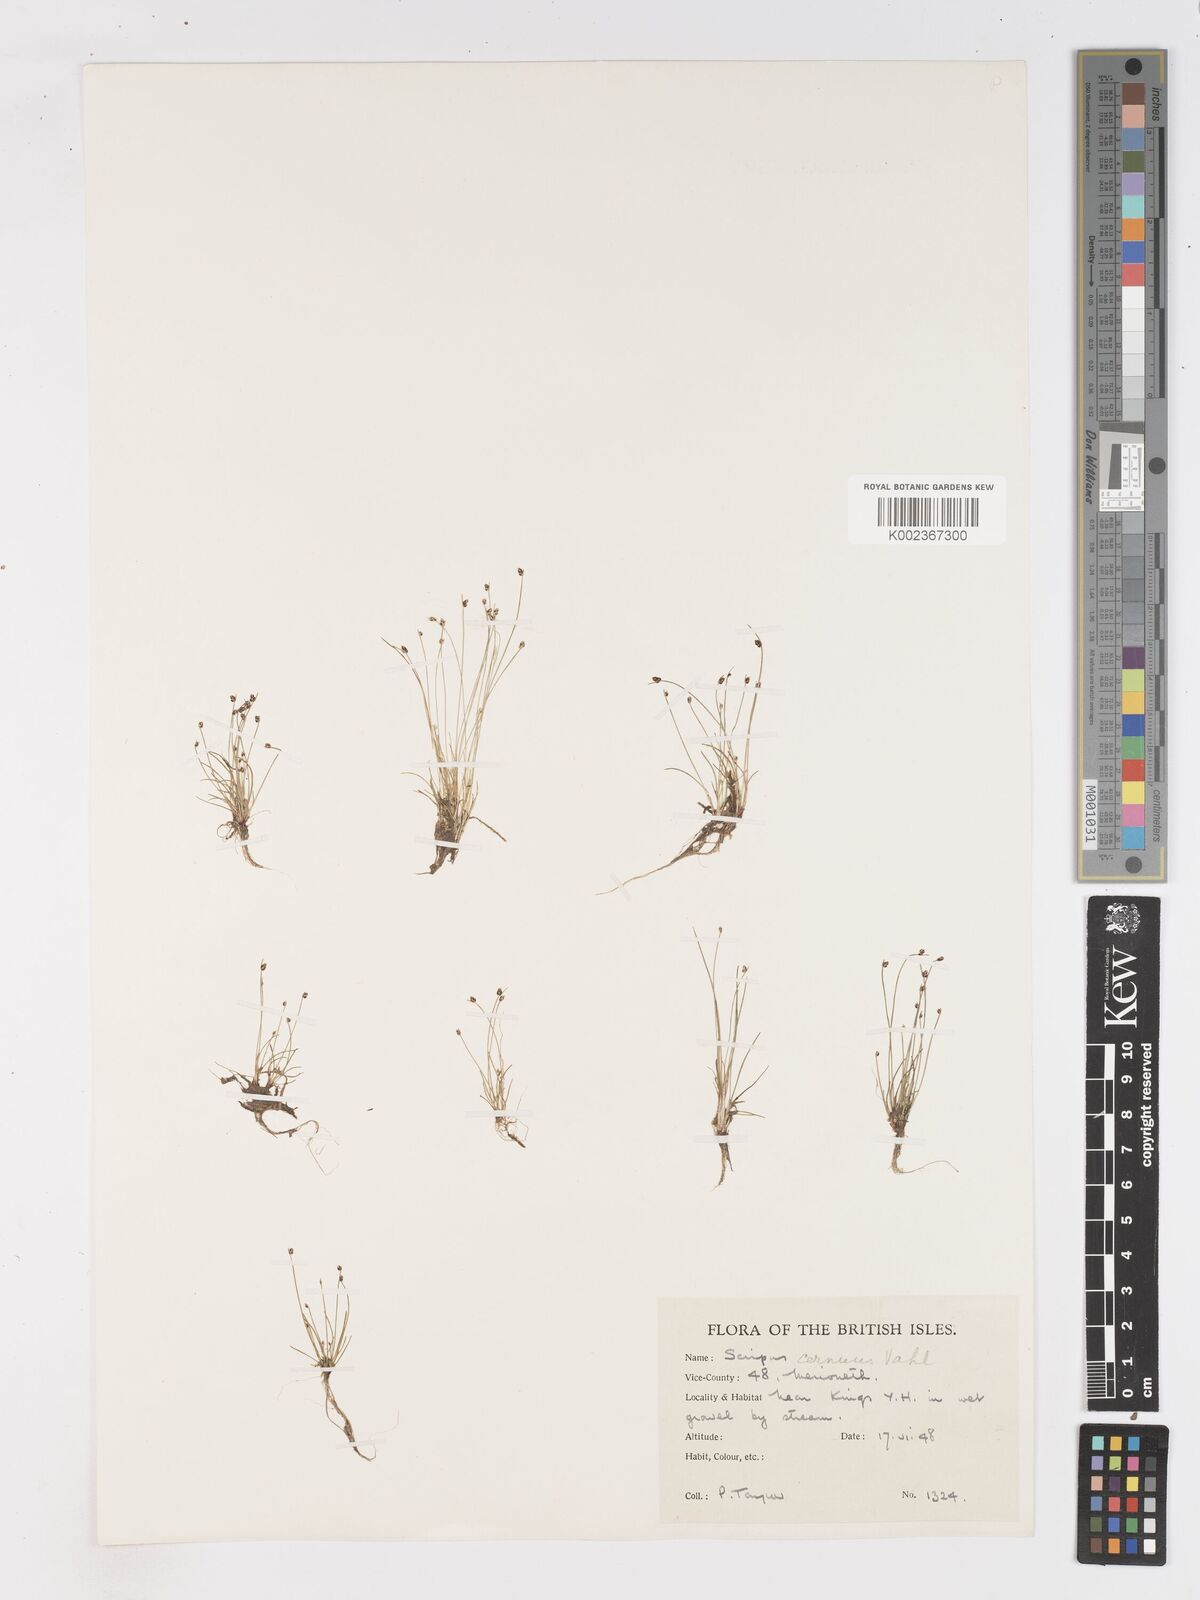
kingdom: Plantae
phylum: Tracheophyta
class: Liliopsida
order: Poales
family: Cyperaceae
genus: Isolepis
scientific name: Isolepis cernua
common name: Slender club-rush
